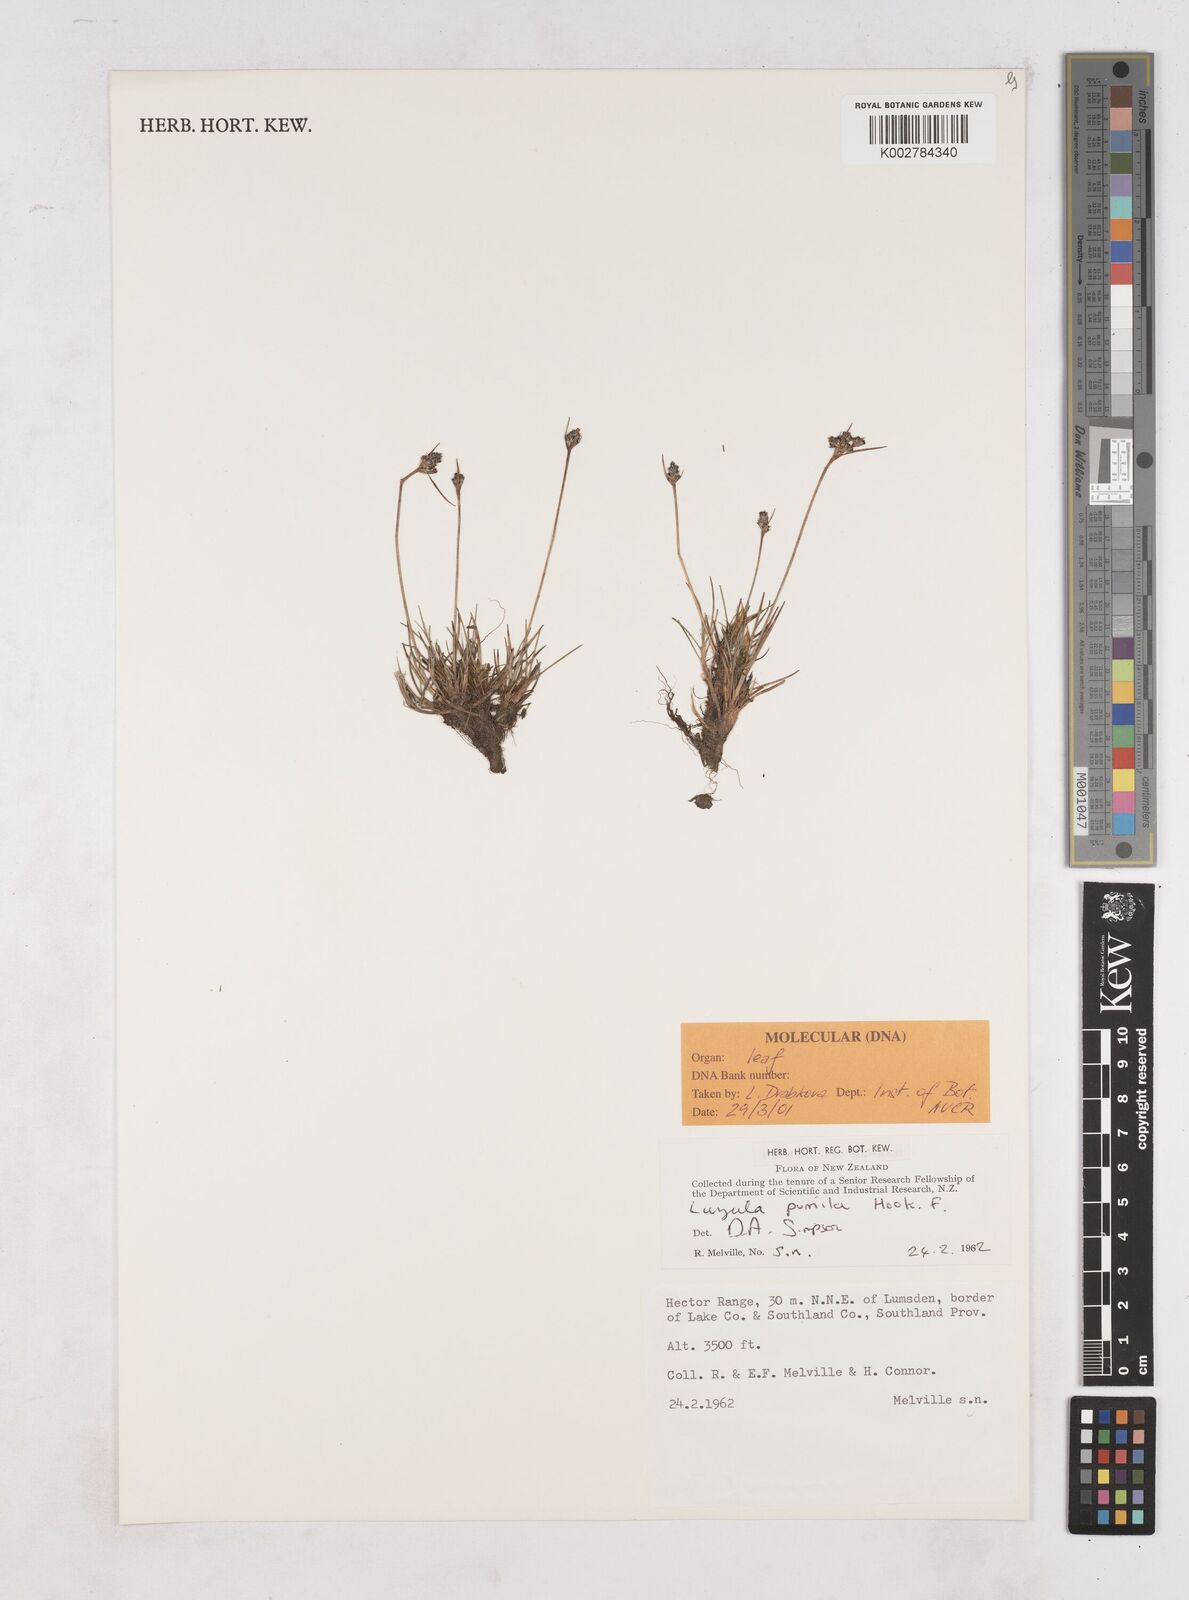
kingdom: Plantae
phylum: Tracheophyta
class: Liliopsida
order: Poales
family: Juncaceae
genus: Luzula
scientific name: Luzula pumila
